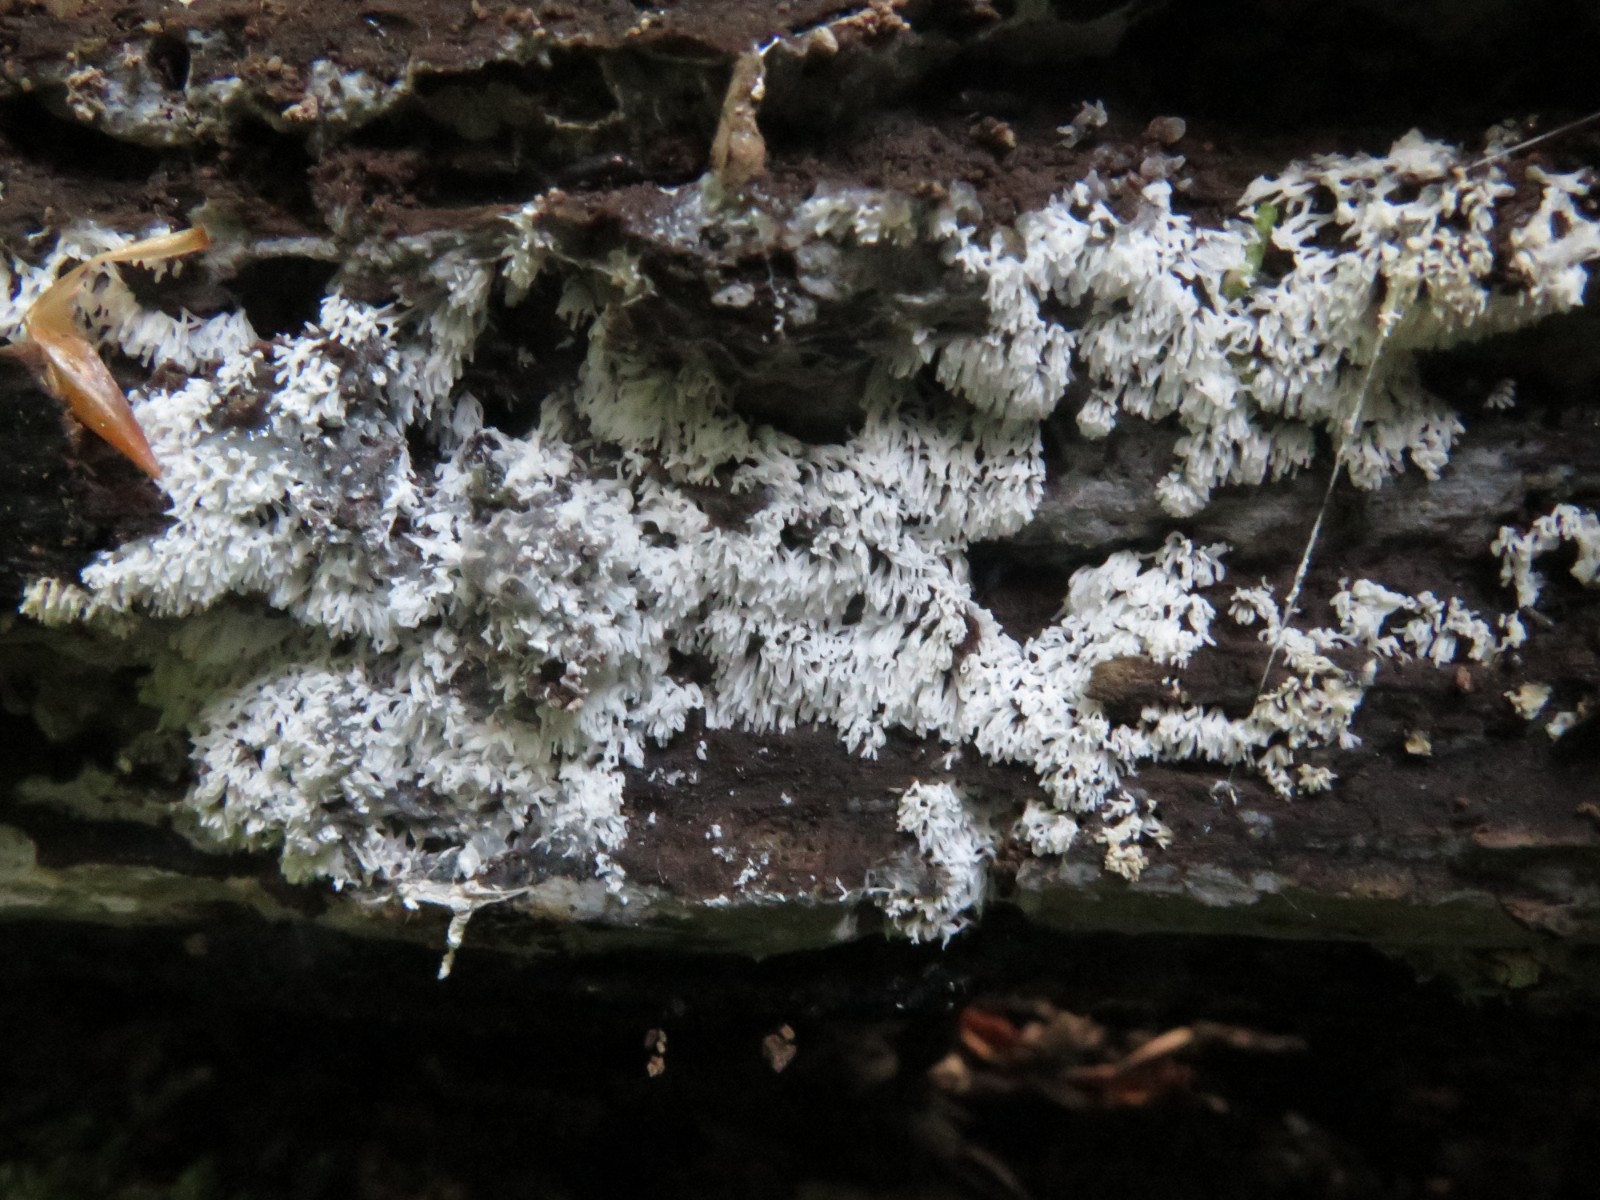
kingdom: Protozoa
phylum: Mycetozoa
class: Protosteliomycetes
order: Ceratiomyxales
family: Ceratiomyxaceae
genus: Ceratiomyxa
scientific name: Ceratiomyxa fruticulosa
